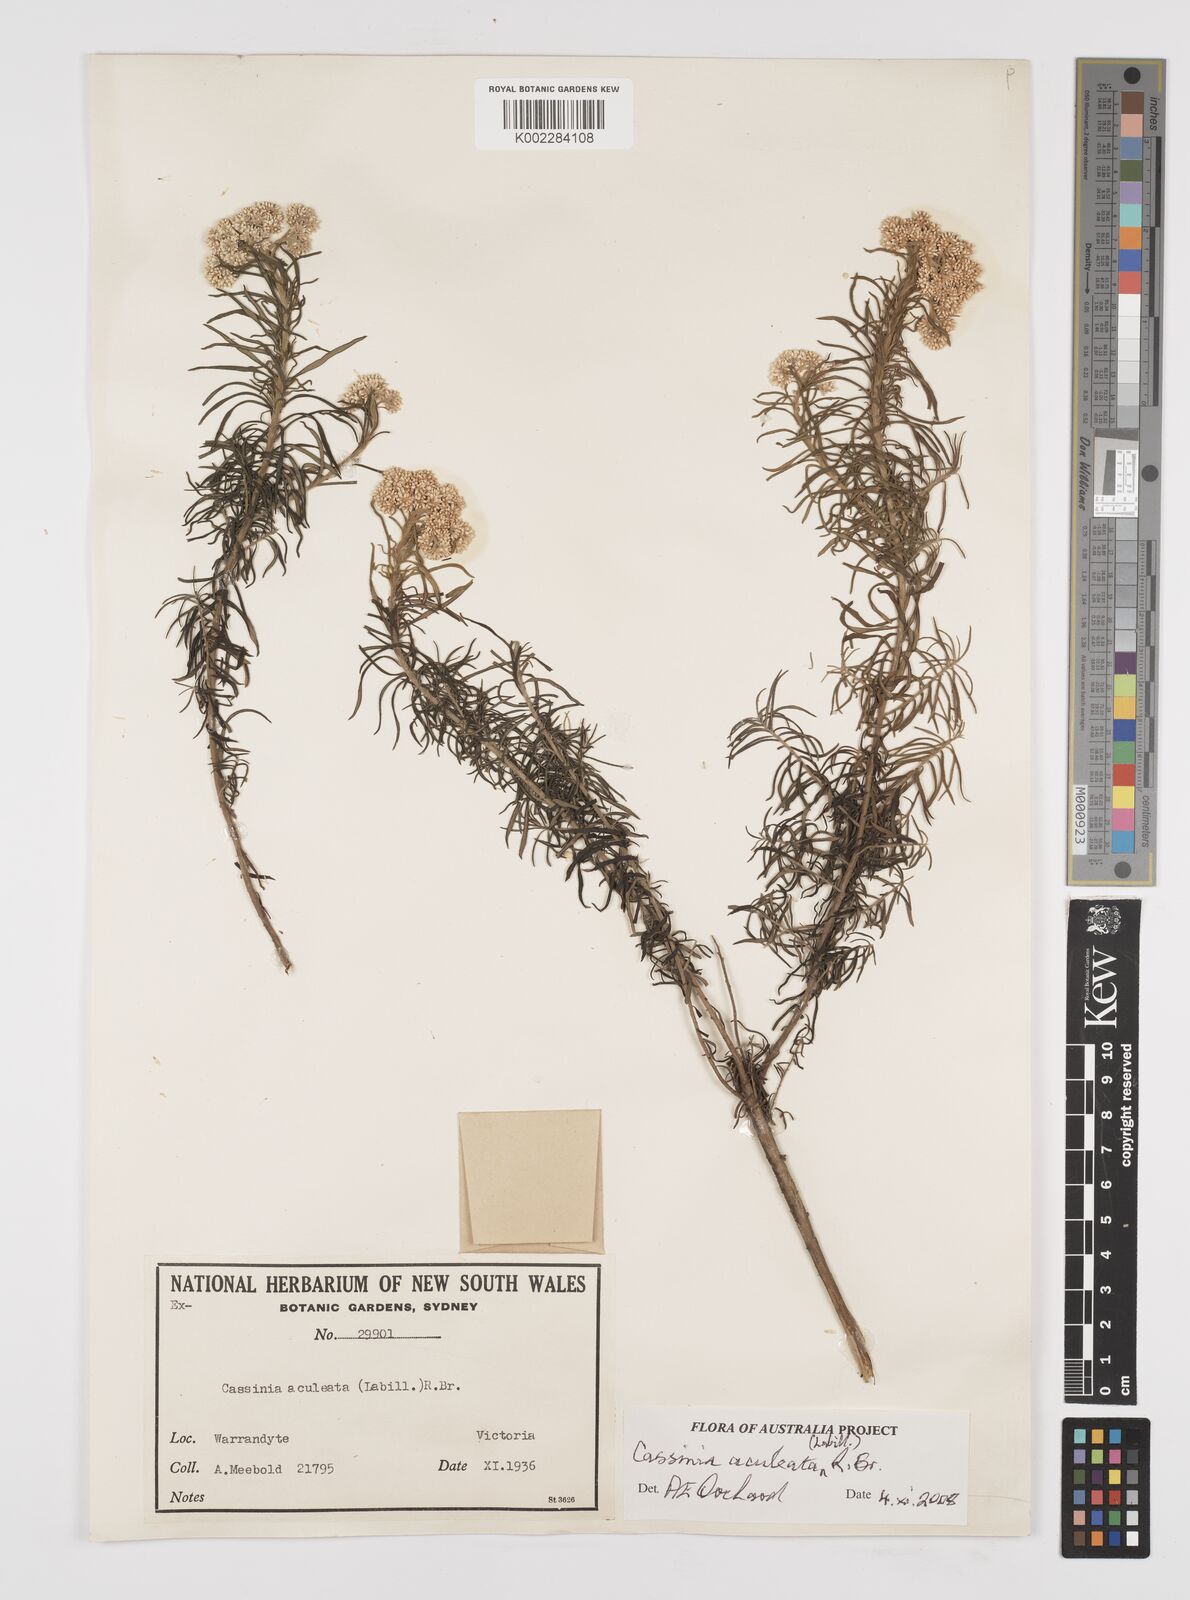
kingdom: Plantae
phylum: Tracheophyta
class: Magnoliopsida
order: Asterales
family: Asteraceae
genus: Cassinia
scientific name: Cassinia aculeata
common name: Australian tauhinu
